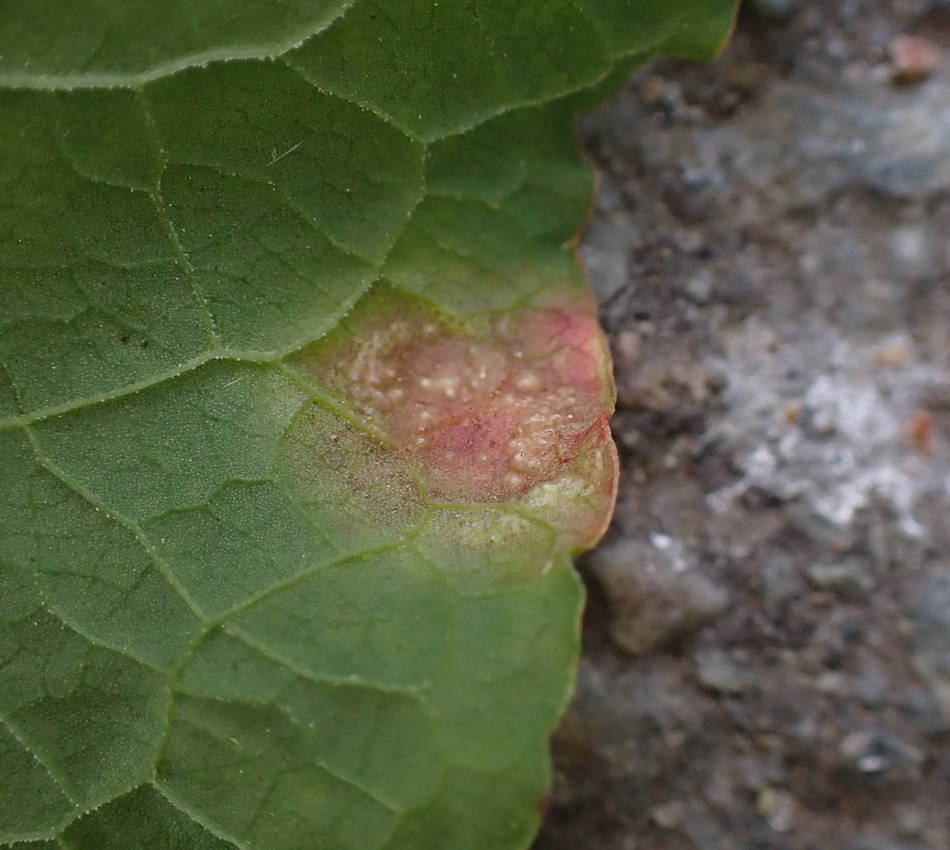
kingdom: Fungi
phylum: Basidiomycota
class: Pucciniomycetes
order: Pucciniales
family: Pucciniaceae
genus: Puccinia
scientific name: Puccinia phragmitis
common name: tagrør-tvecellerust
